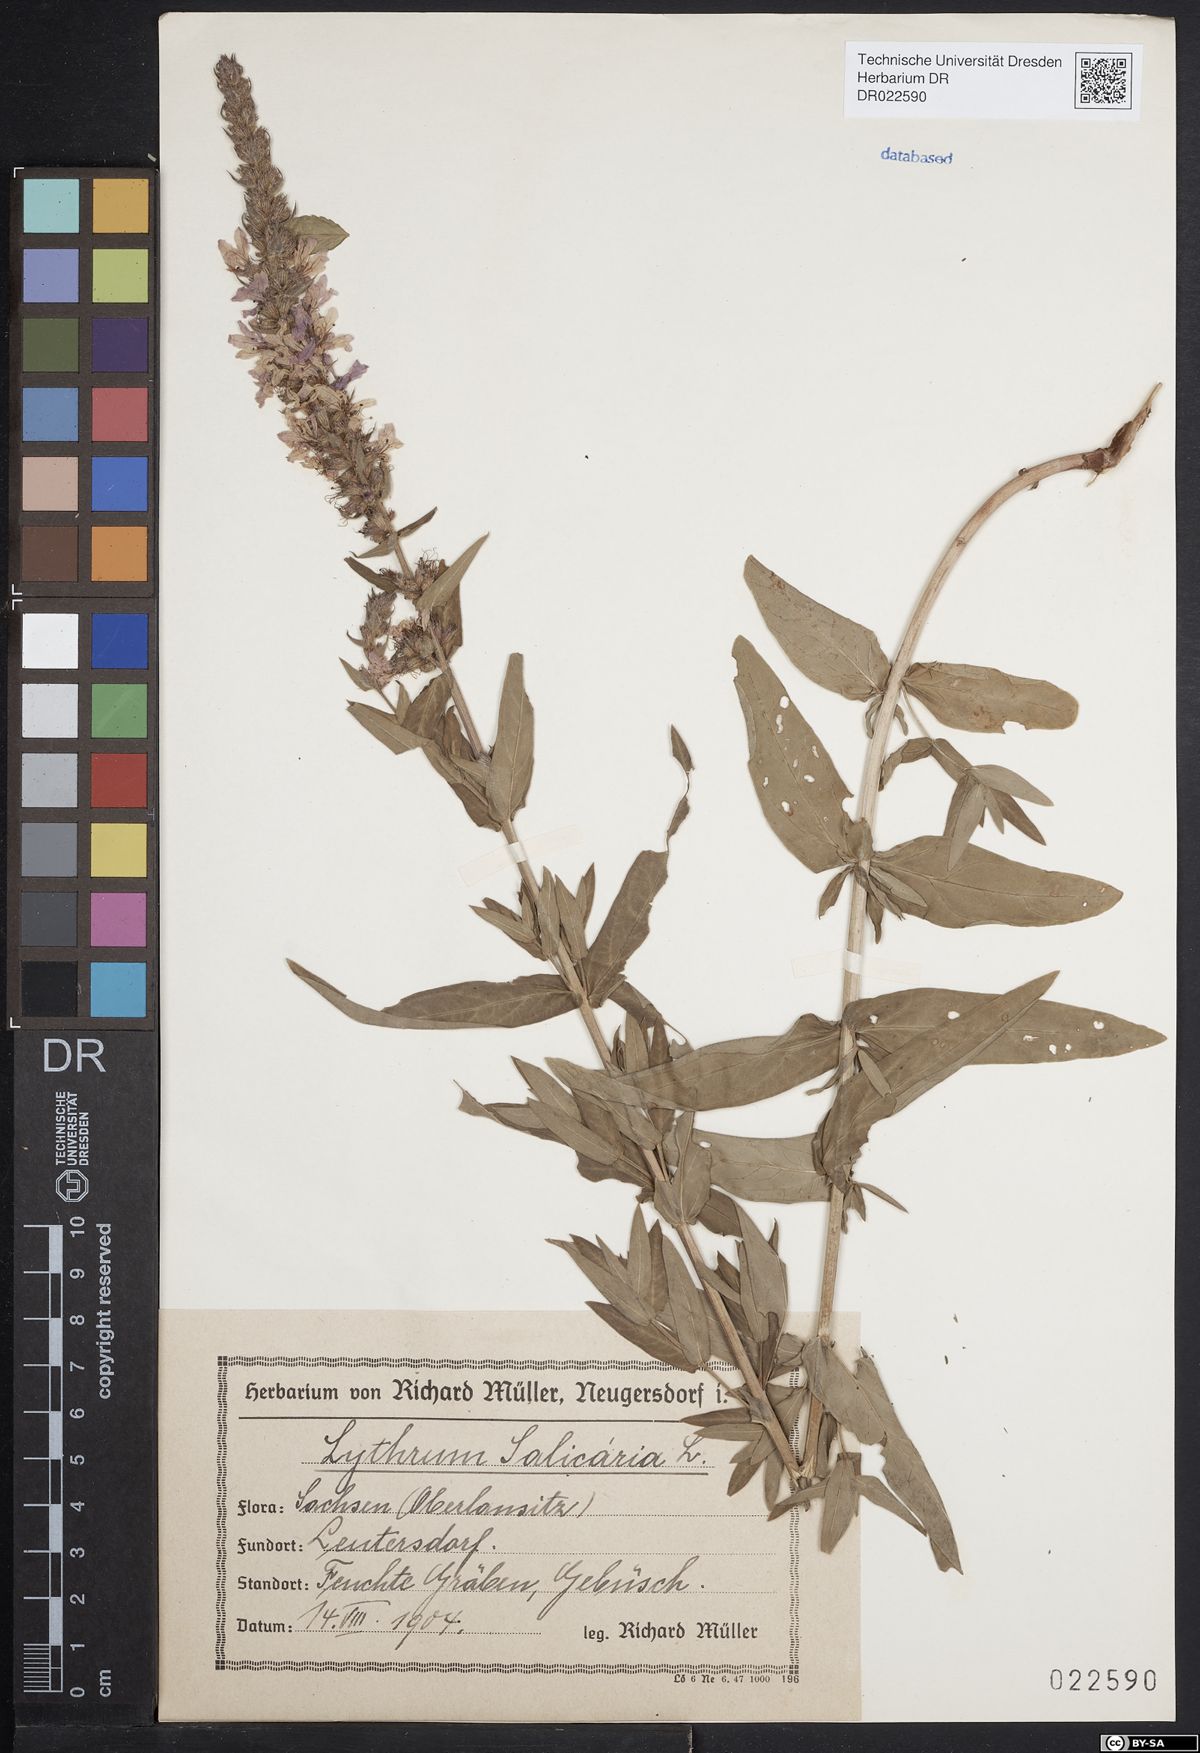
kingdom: Plantae
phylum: Tracheophyta
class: Magnoliopsida
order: Myrtales
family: Lythraceae
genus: Lythrum
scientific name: Lythrum salicaria
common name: Purple loosestrife
